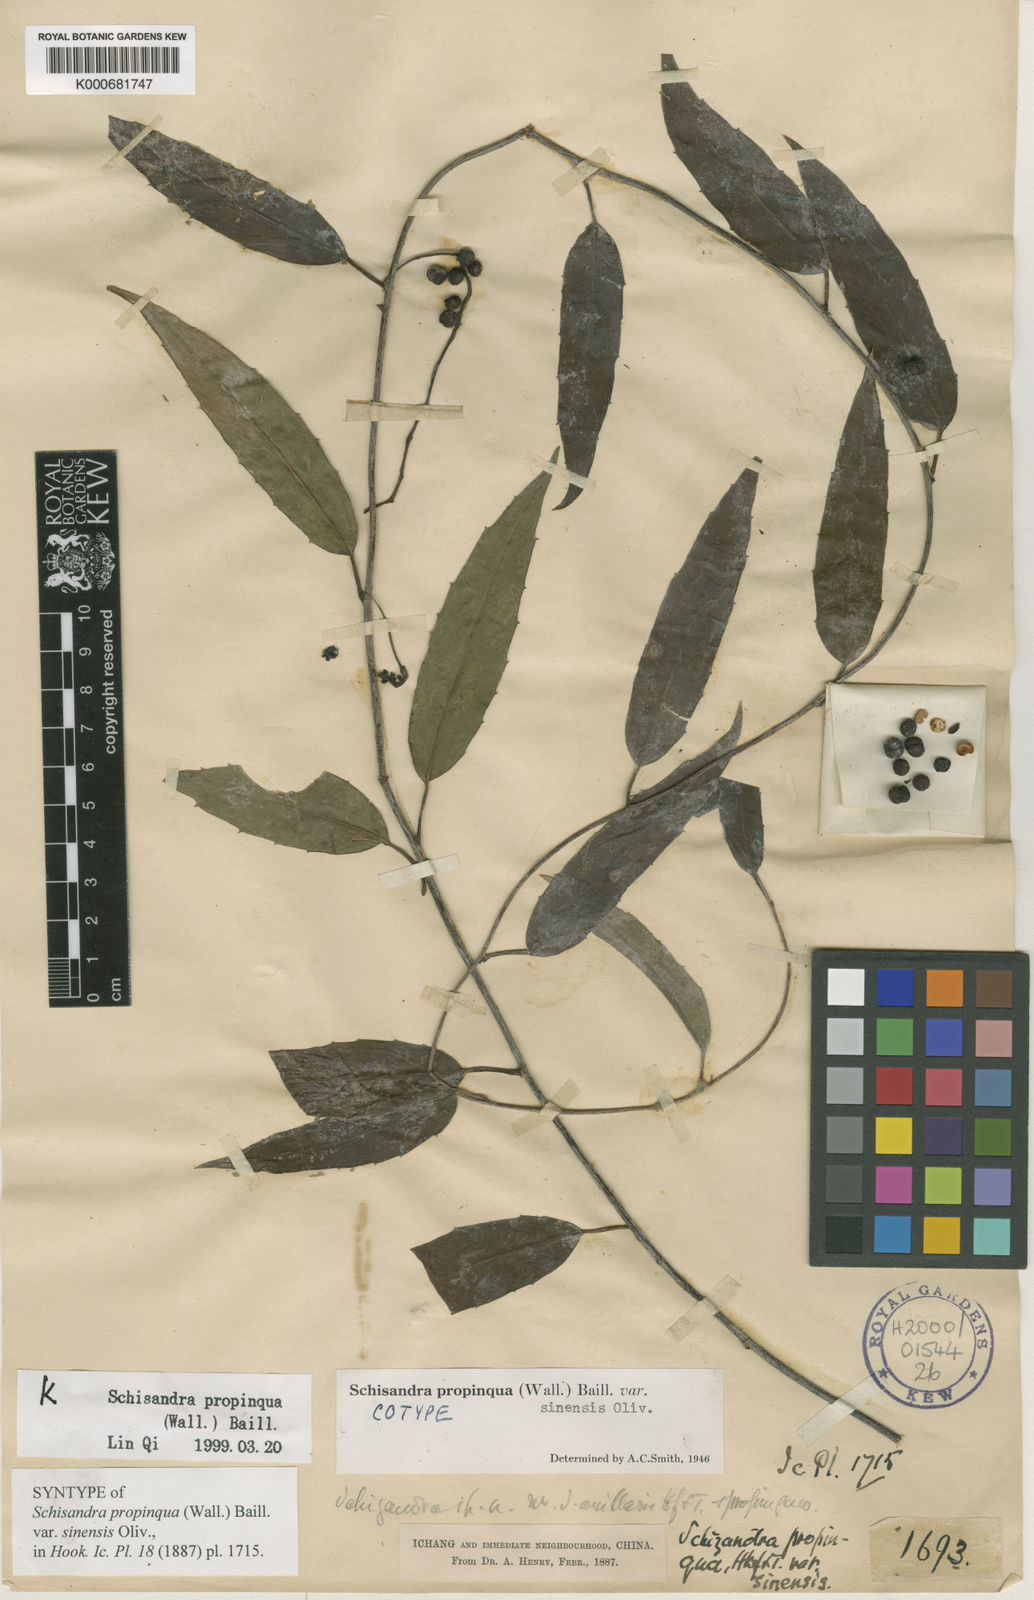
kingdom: Plantae
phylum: Tracheophyta
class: Magnoliopsida
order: Austrobaileyales
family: Schisandraceae
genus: Schisandra
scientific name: Schisandra propinqua
